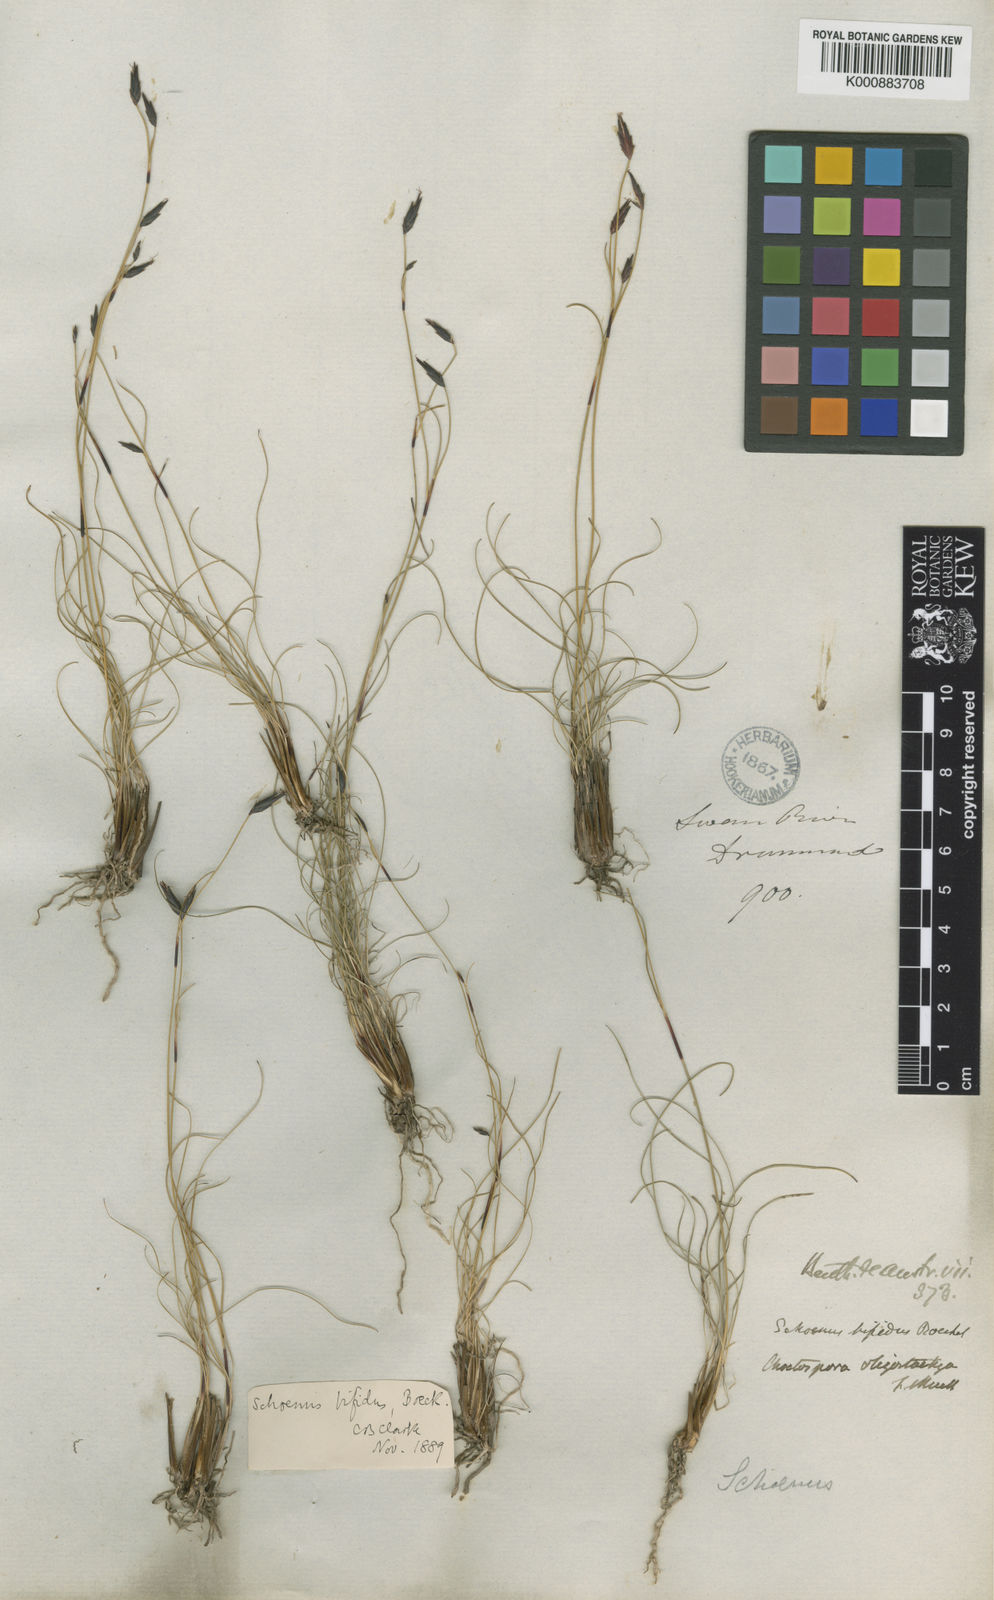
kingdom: Plantae
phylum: Tracheophyta
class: Liliopsida
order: Poales
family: Cyperaceae
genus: Schoenus
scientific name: Schoenus bifidus
